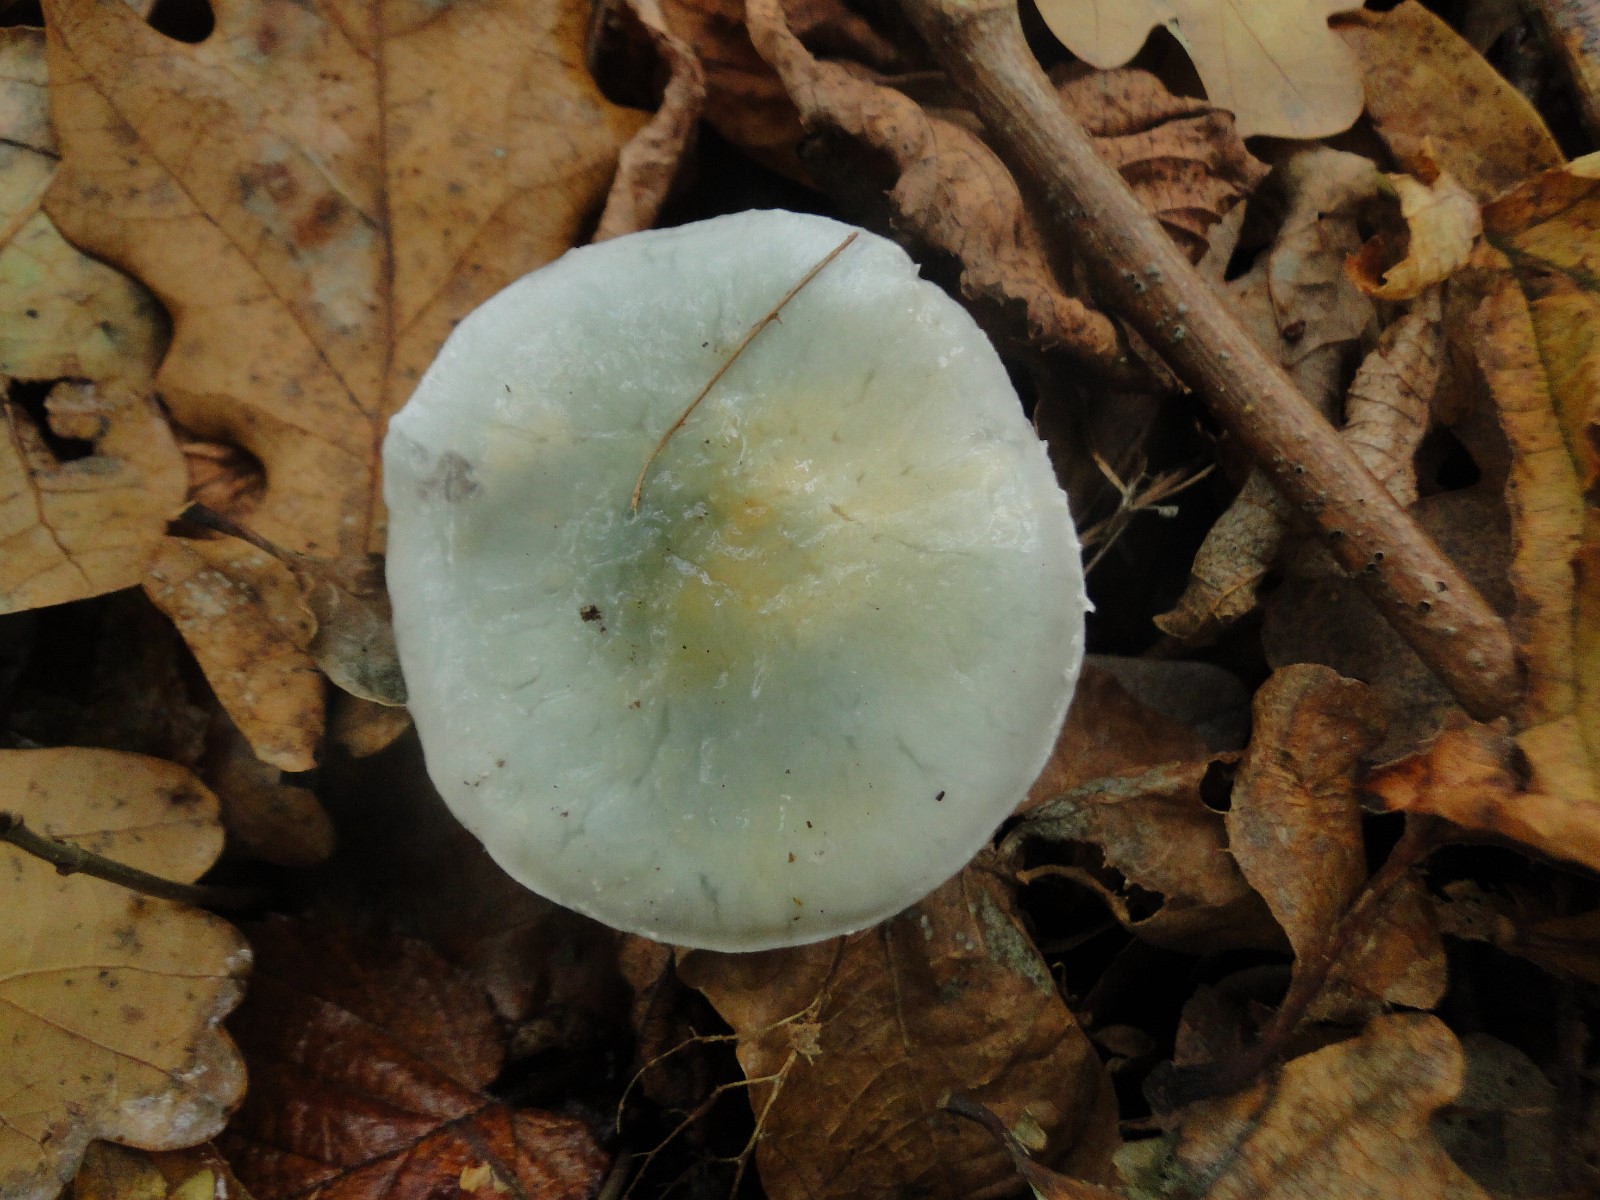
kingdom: Fungi
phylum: Basidiomycota
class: Agaricomycetes
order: Agaricales
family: Strophariaceae
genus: Stropharia
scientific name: Stropharia cyanea
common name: blågrøn bredblad
